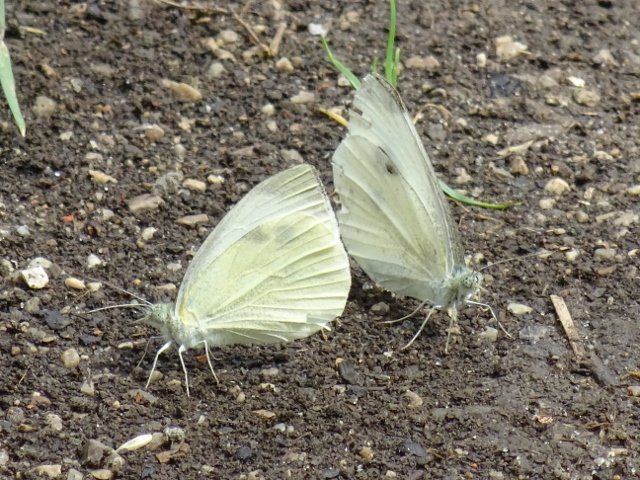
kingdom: Animalia
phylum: Arthropoda
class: Insecta
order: Lepidoptera
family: Pieridae
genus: Pieris
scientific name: Pieris rapae
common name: Cabbage White
